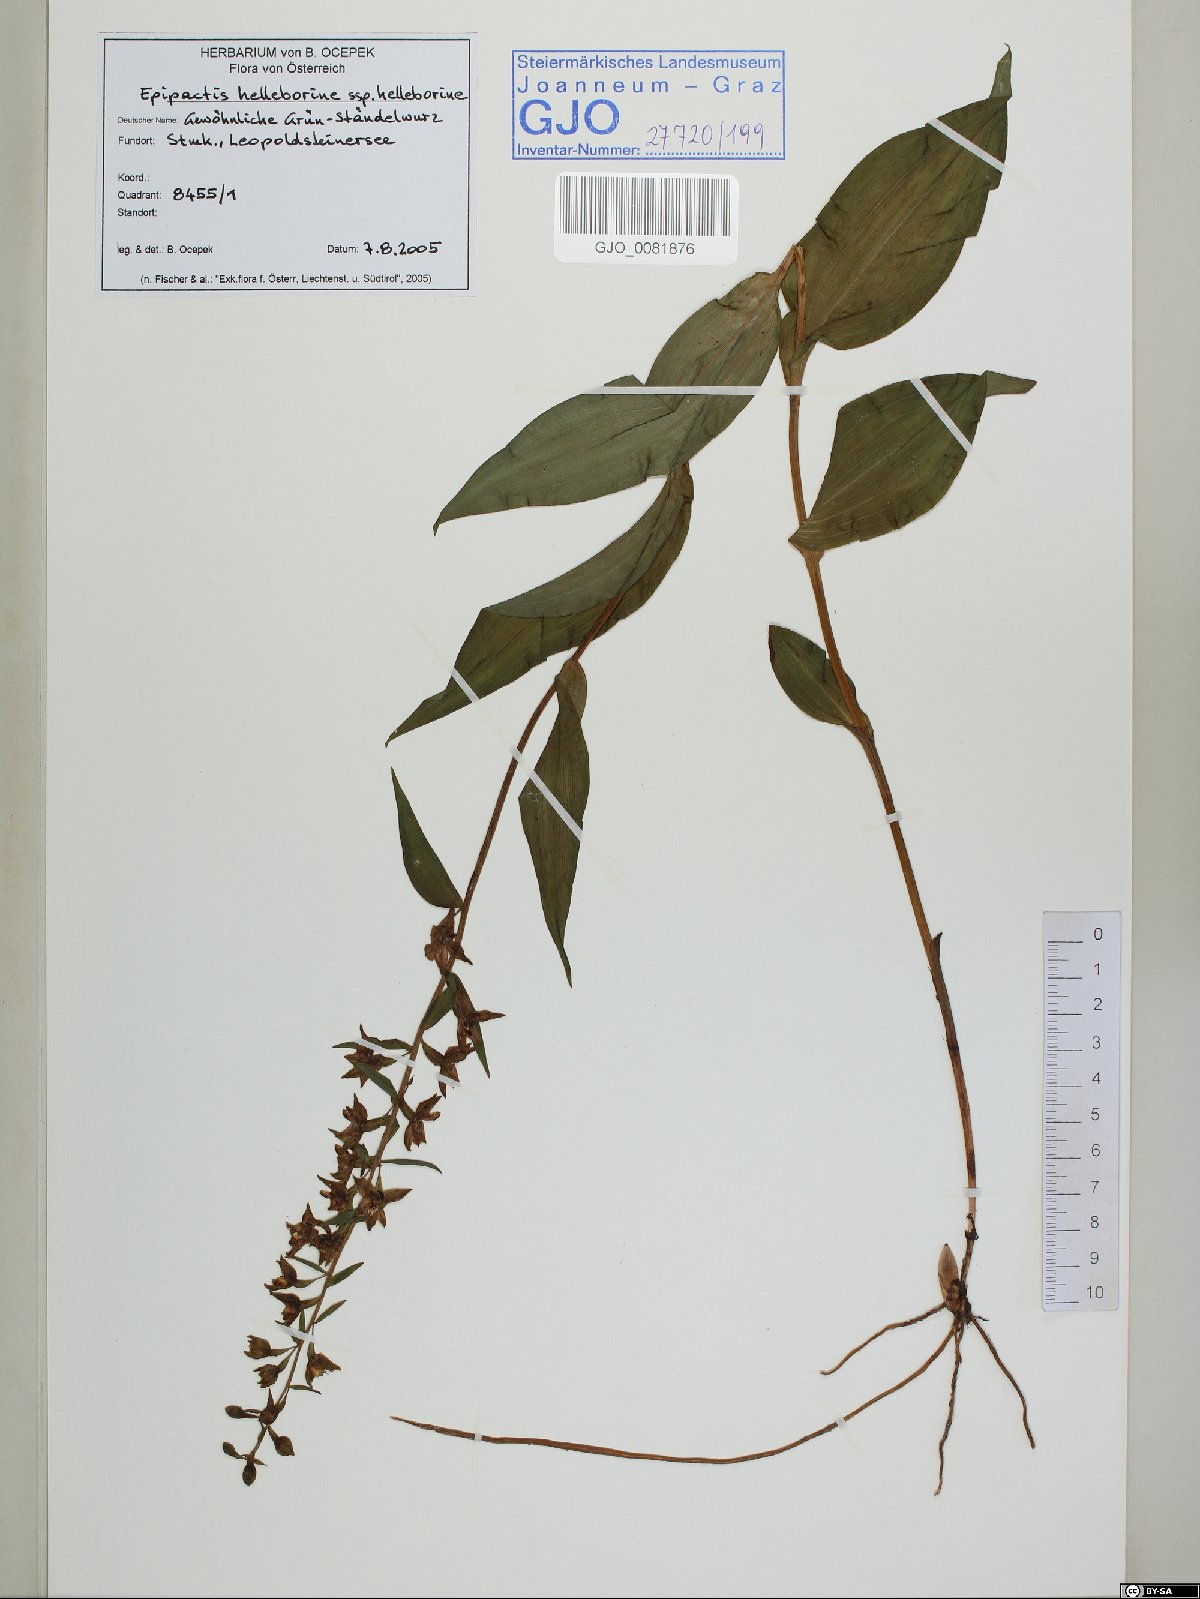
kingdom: Plantae
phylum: Tracheophyta
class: Liliopsida
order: Asparagales
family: Orchidaceae
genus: Epipactis
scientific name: Epipactis helleborine
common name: Broad-leaved helleborine
